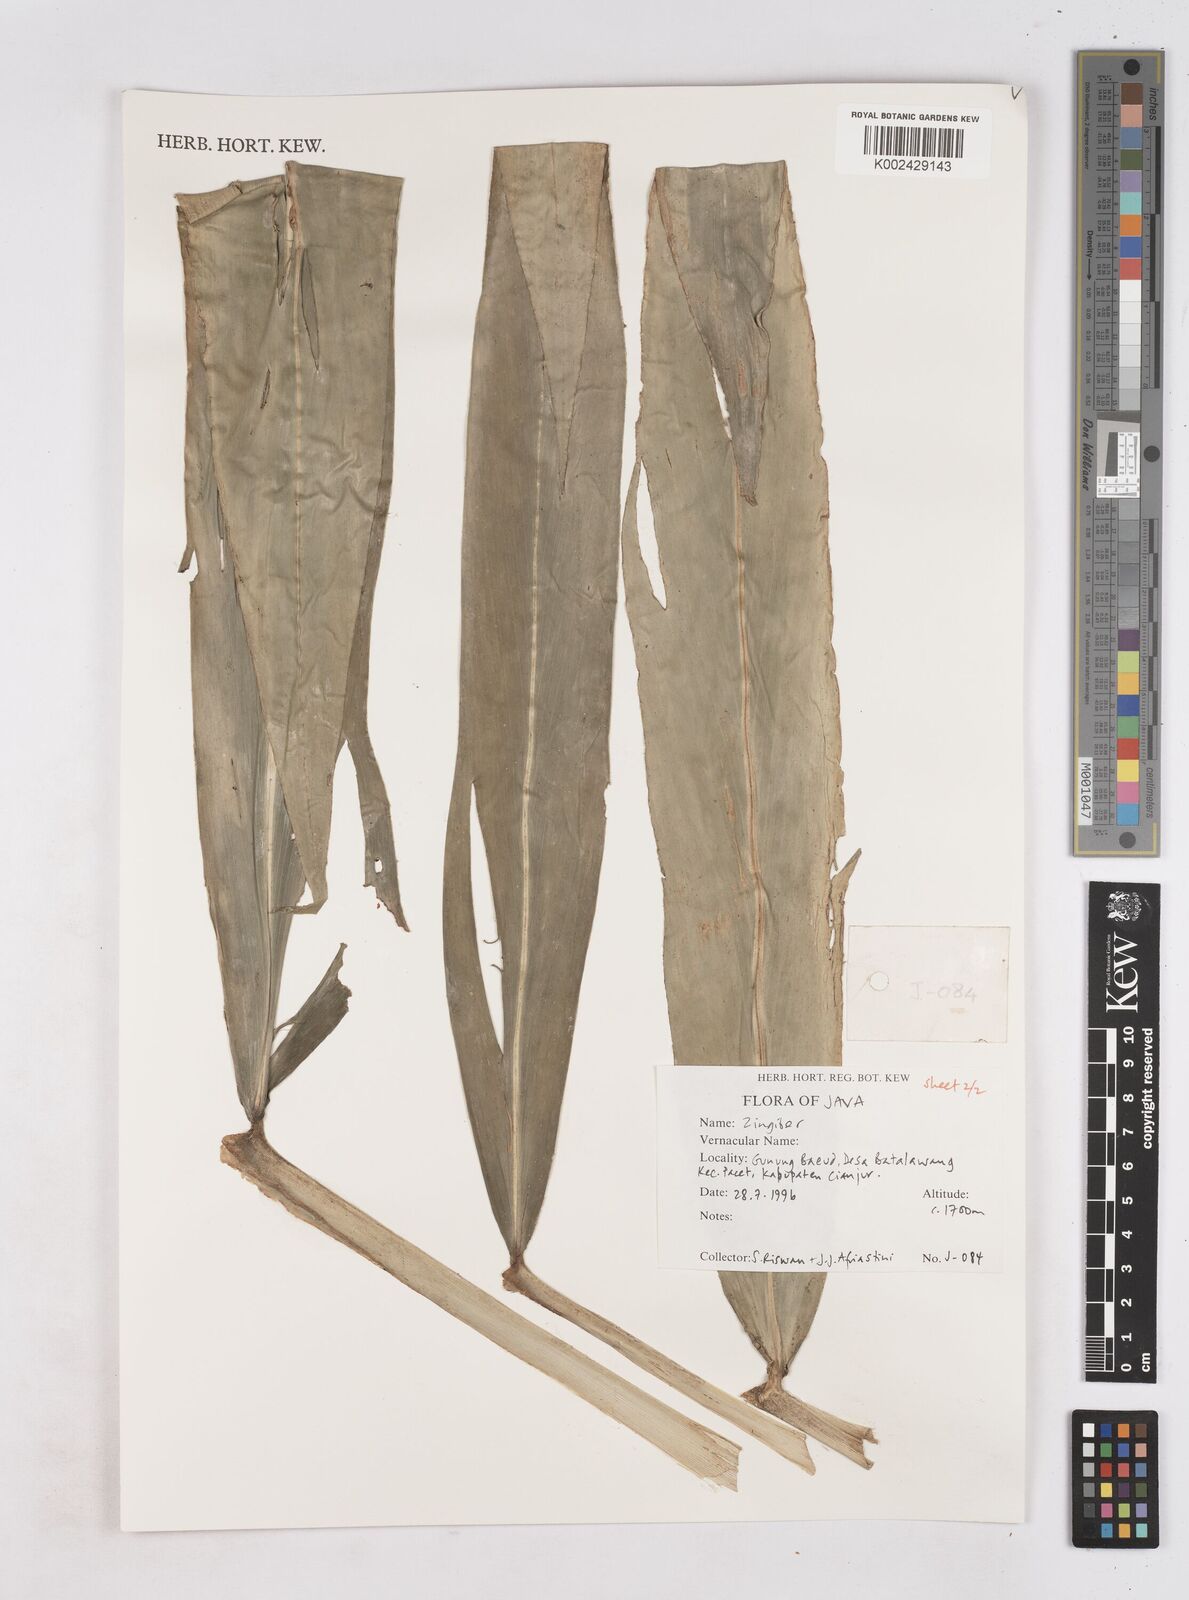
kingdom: Plantae
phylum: Tracheophyta
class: Liliopsida
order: Zingiberales
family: Zingiberaceae
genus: Zingiber
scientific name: Zingiber
